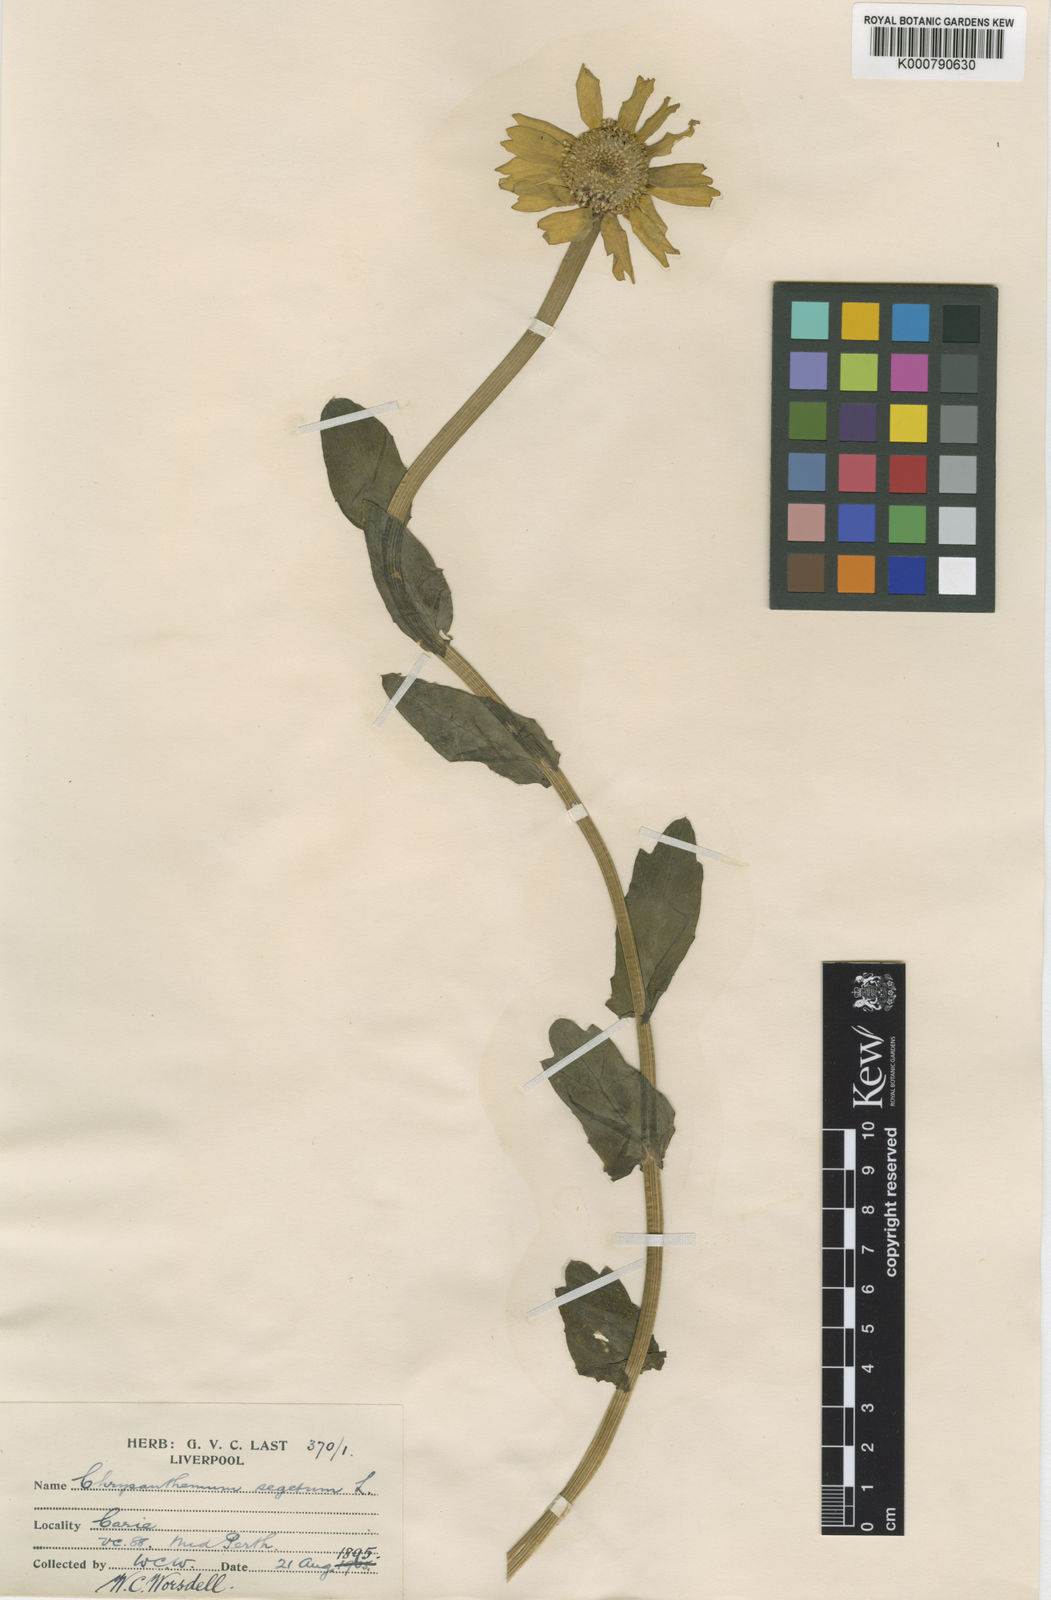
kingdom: Plantae
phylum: Tracheophyta
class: Magnoliopsida
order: Asterales
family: Asteraceae
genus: Glebionis
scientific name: Glebionis
